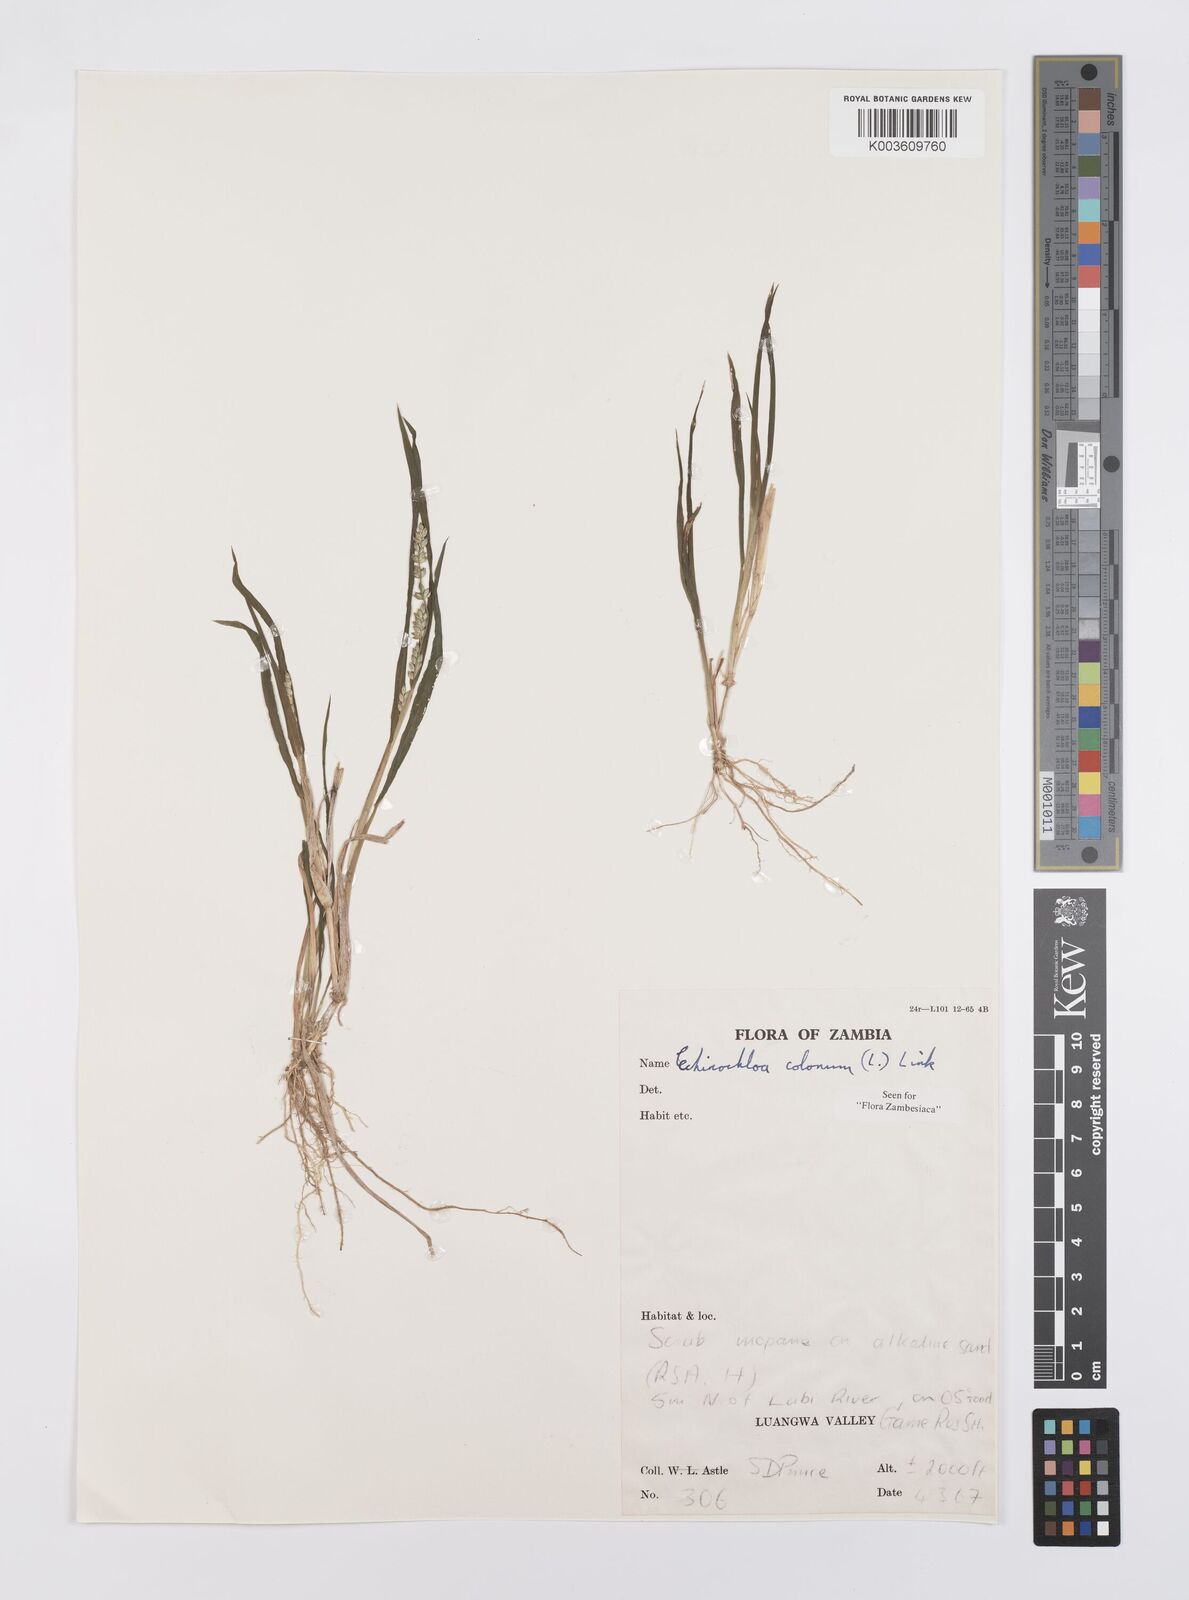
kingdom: Plantae
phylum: Tracheophyta
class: Liliopsida
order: Poales
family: Poaceae
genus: Echinochloa
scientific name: Echinochloa colonum
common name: Jungle rice
